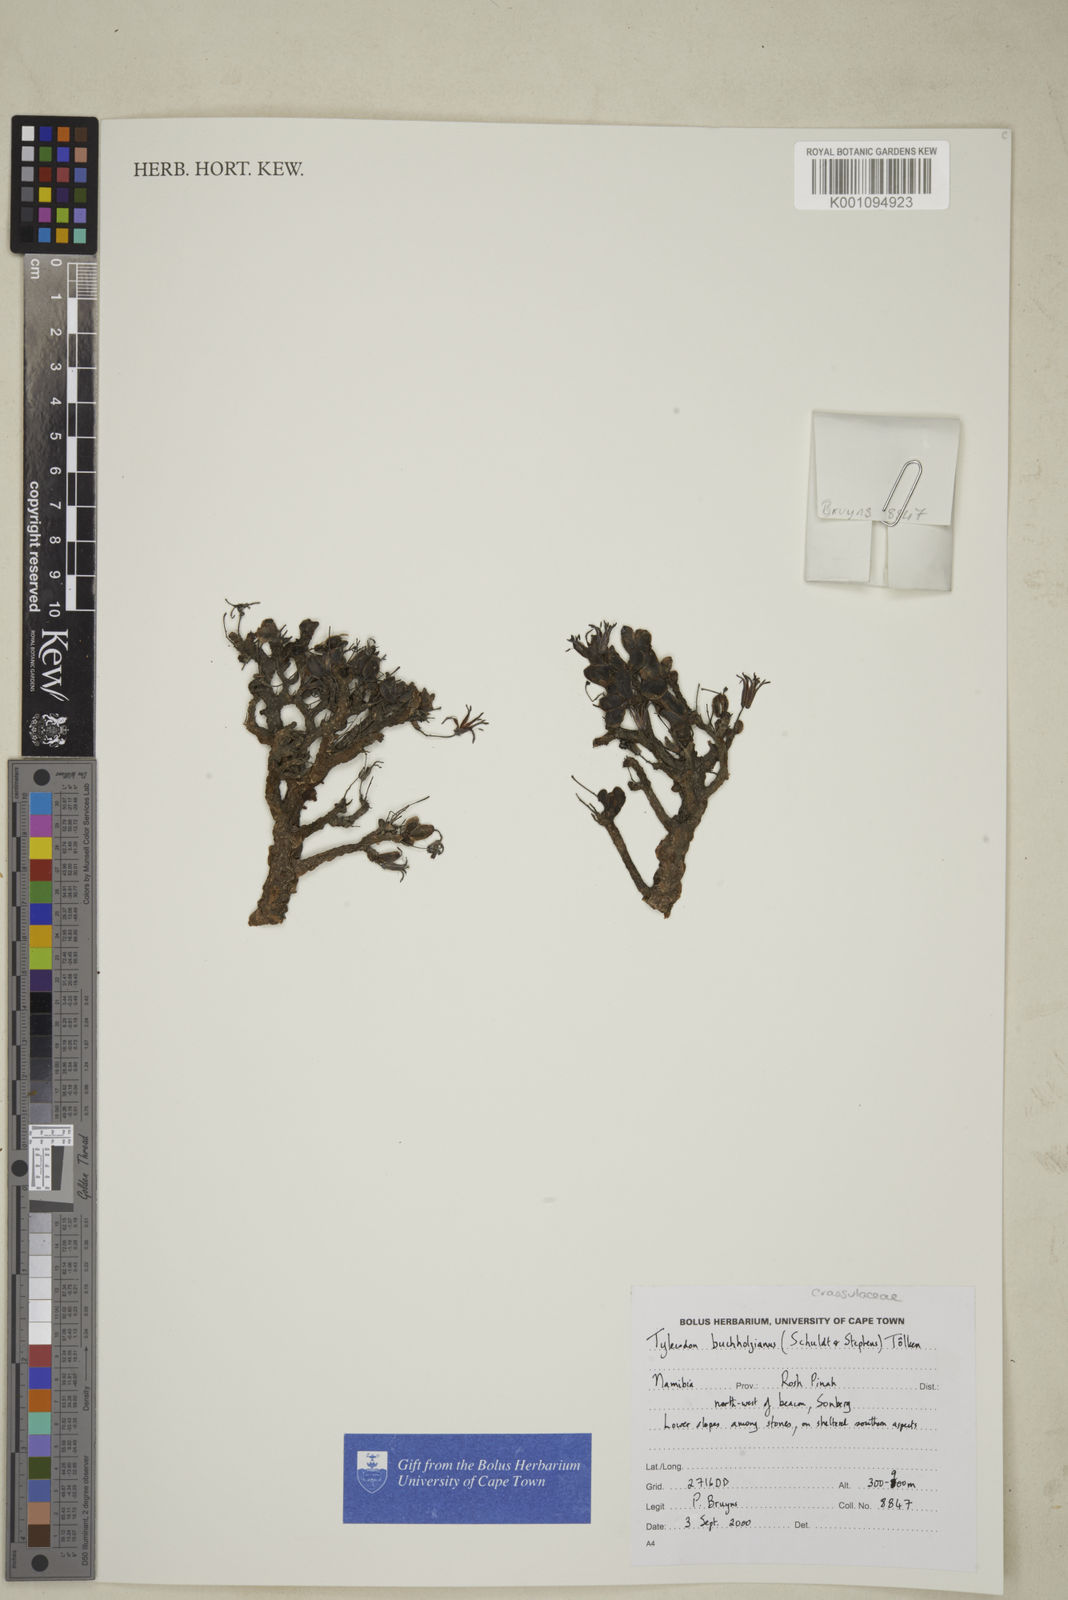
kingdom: Plantae
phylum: Tracheophyta
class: Magnoliopsida
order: Saxifragales
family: Crassulaceae
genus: Tylecodon
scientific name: Tylecodon buchholzianus
